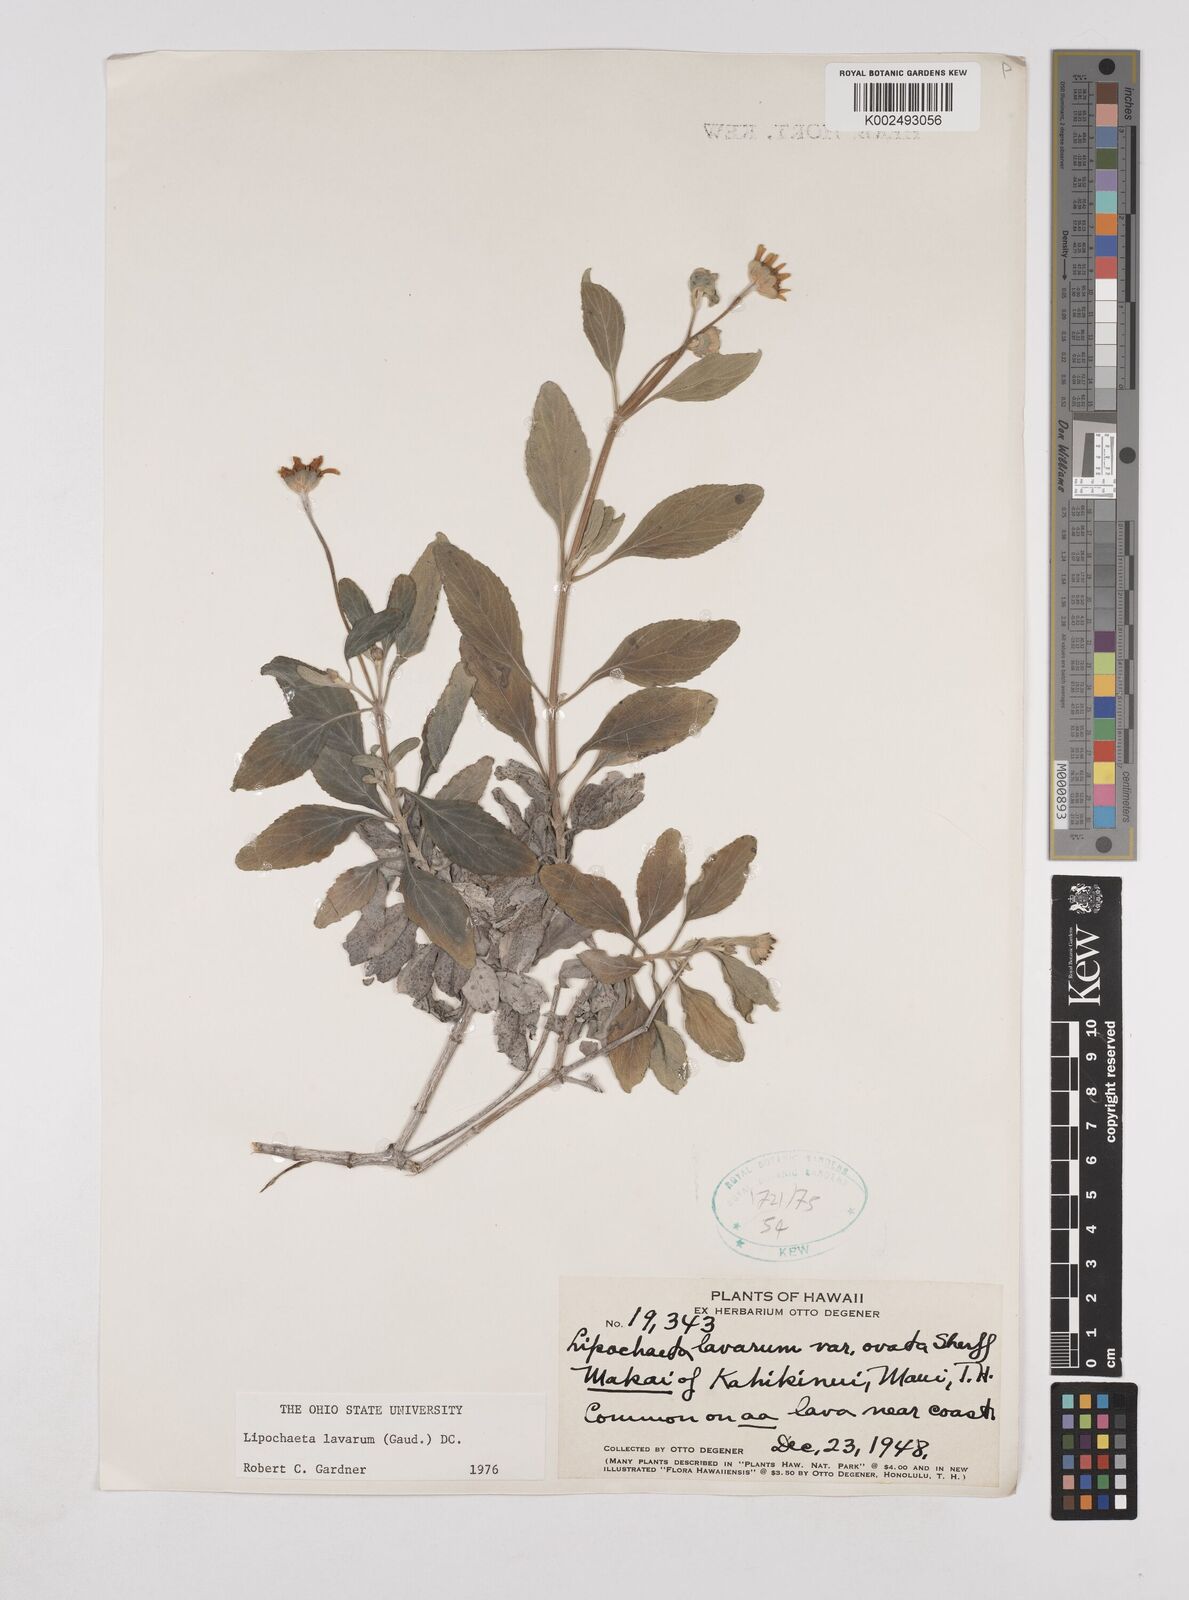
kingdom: Plantae
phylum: Tracheophyta
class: Magnoliopsida
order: Asterales
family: Asteraceae
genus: Lipochaeta
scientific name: Lipochaeta lavarum
